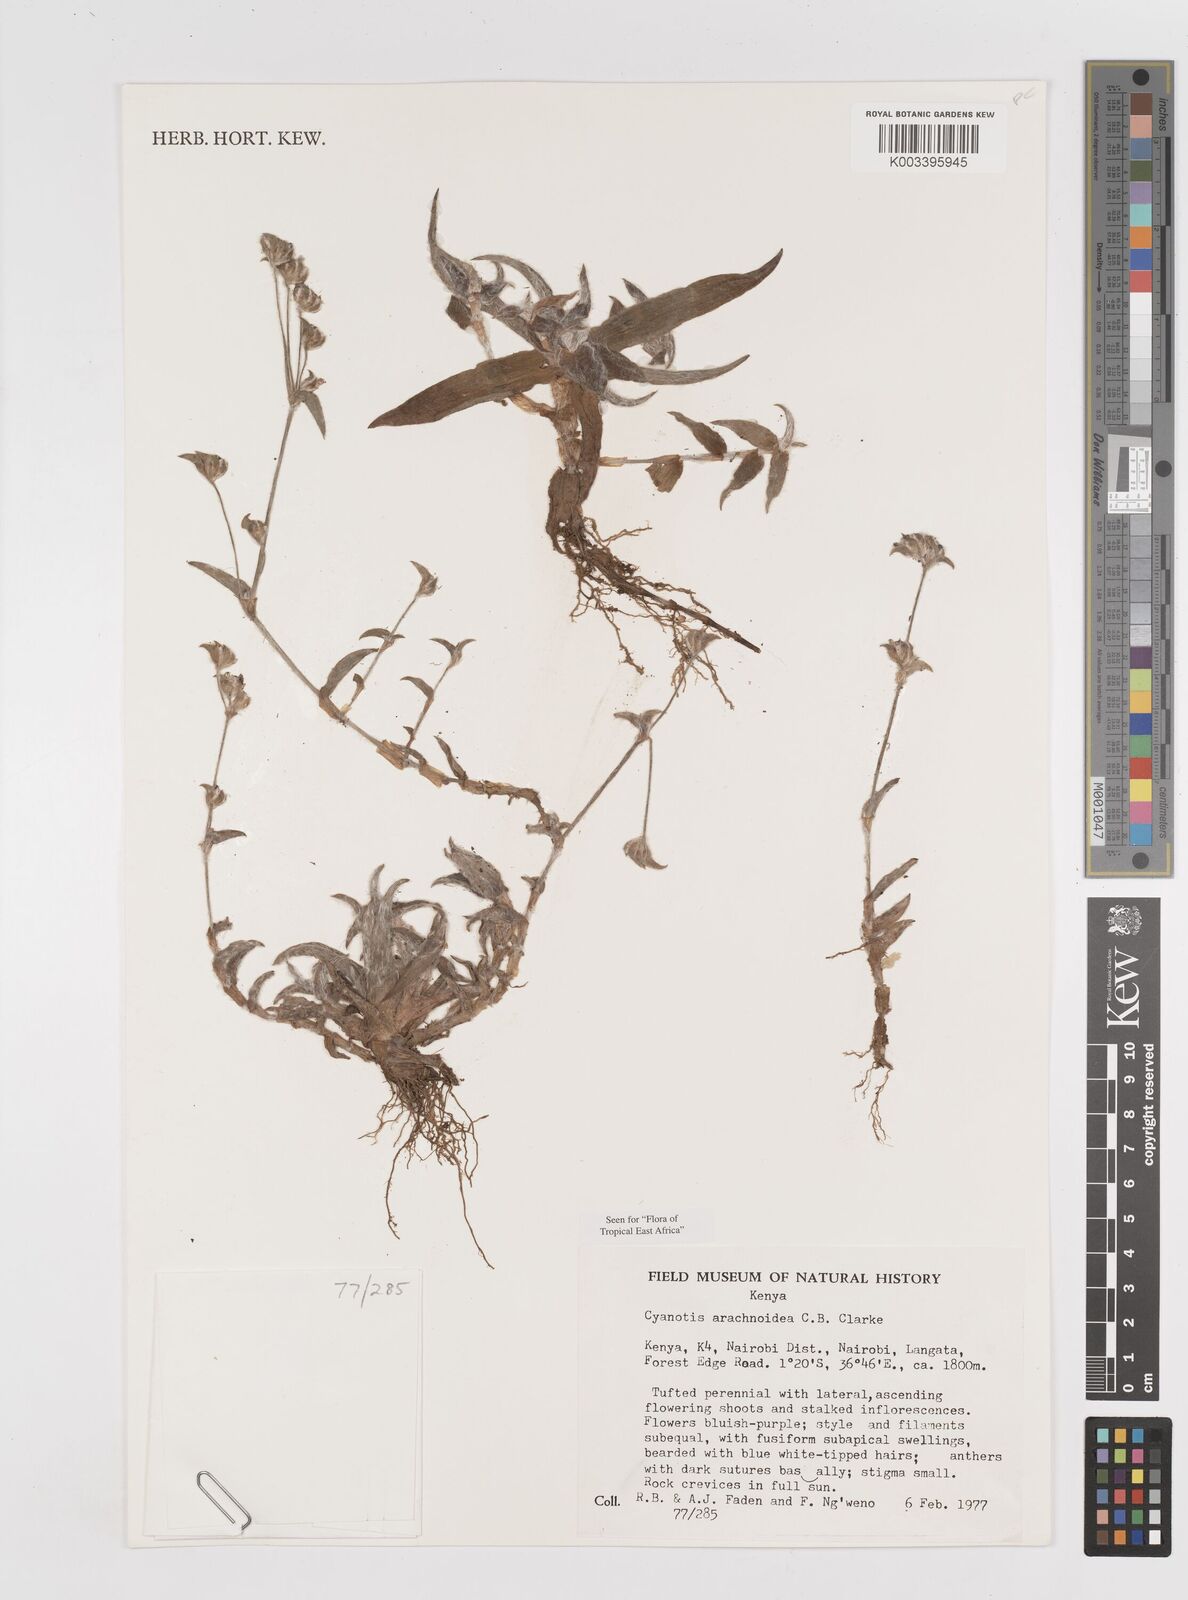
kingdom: Plantae
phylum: Tracheophyta
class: Liliopsida
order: Commelinales
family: Commelinaceae
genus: Cyanotis
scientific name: Cyanotis arachnoidea
